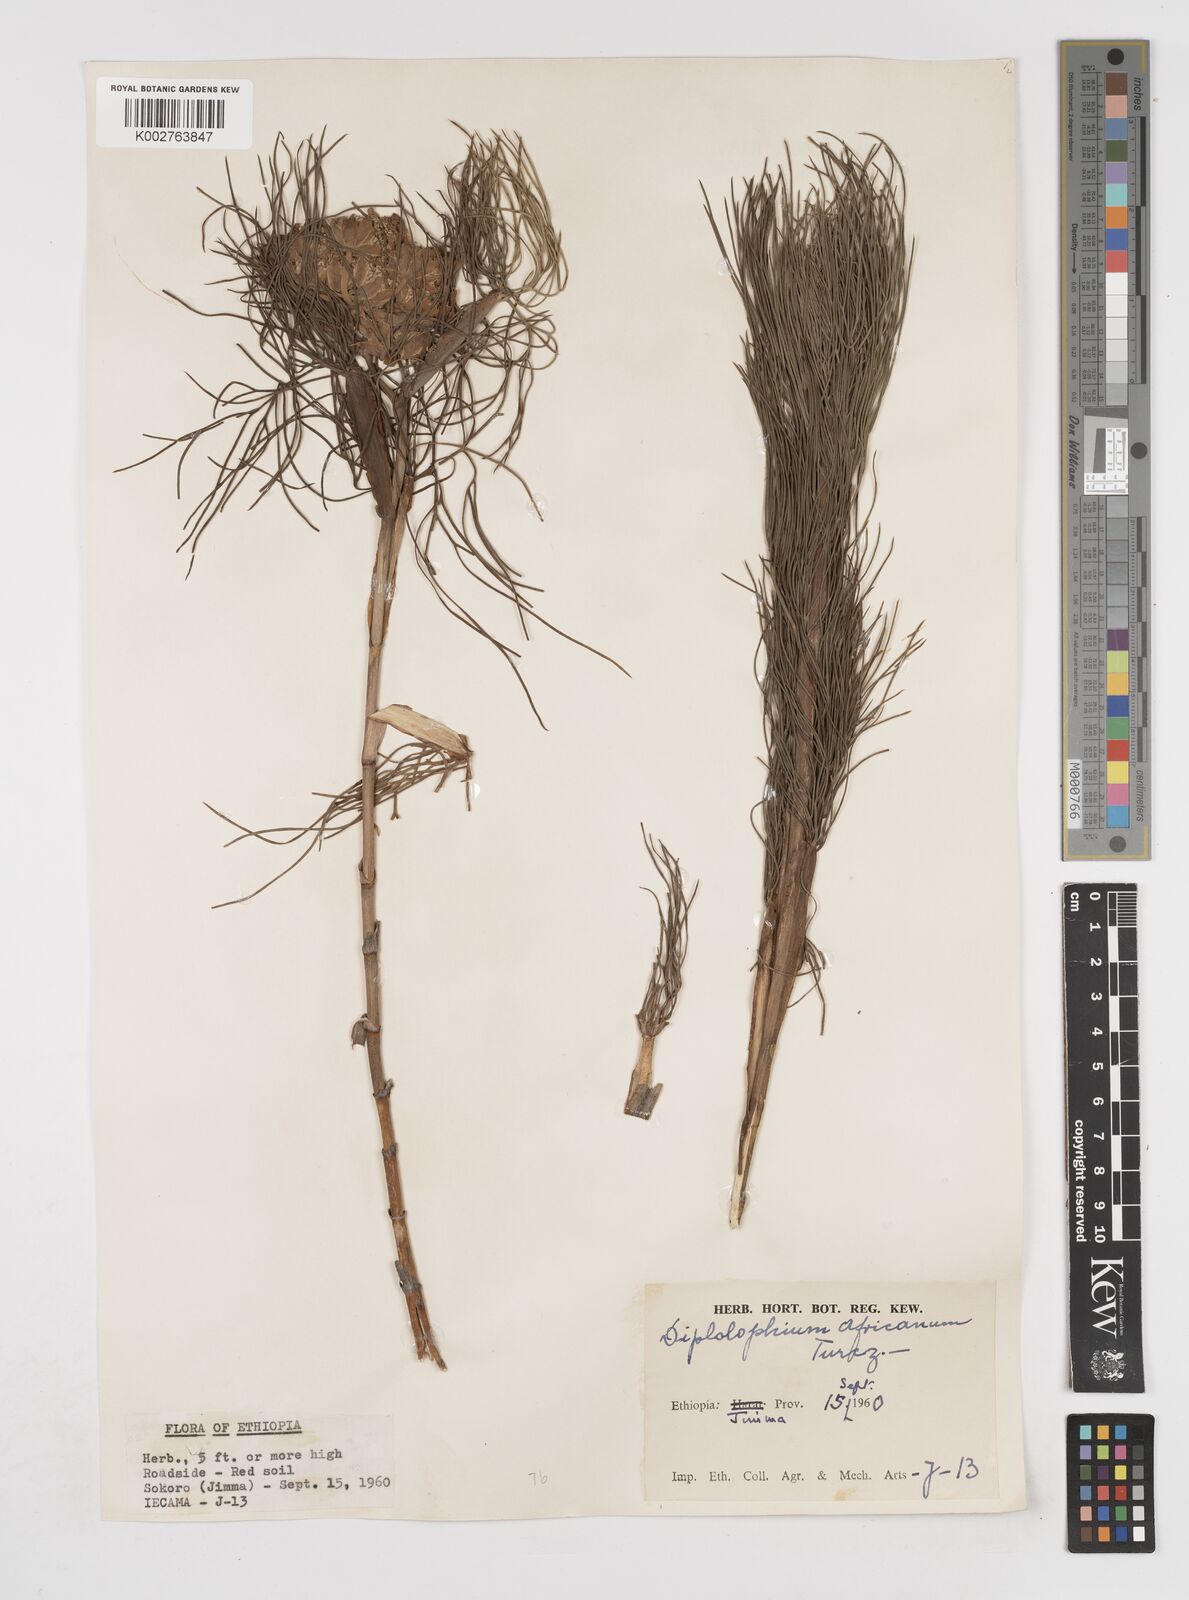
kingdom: Plantae
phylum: Tracheophyta
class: Magnoliopsida
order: Apiales
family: Apiaceae
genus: Diplolophium
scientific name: Diplolophium africanum
